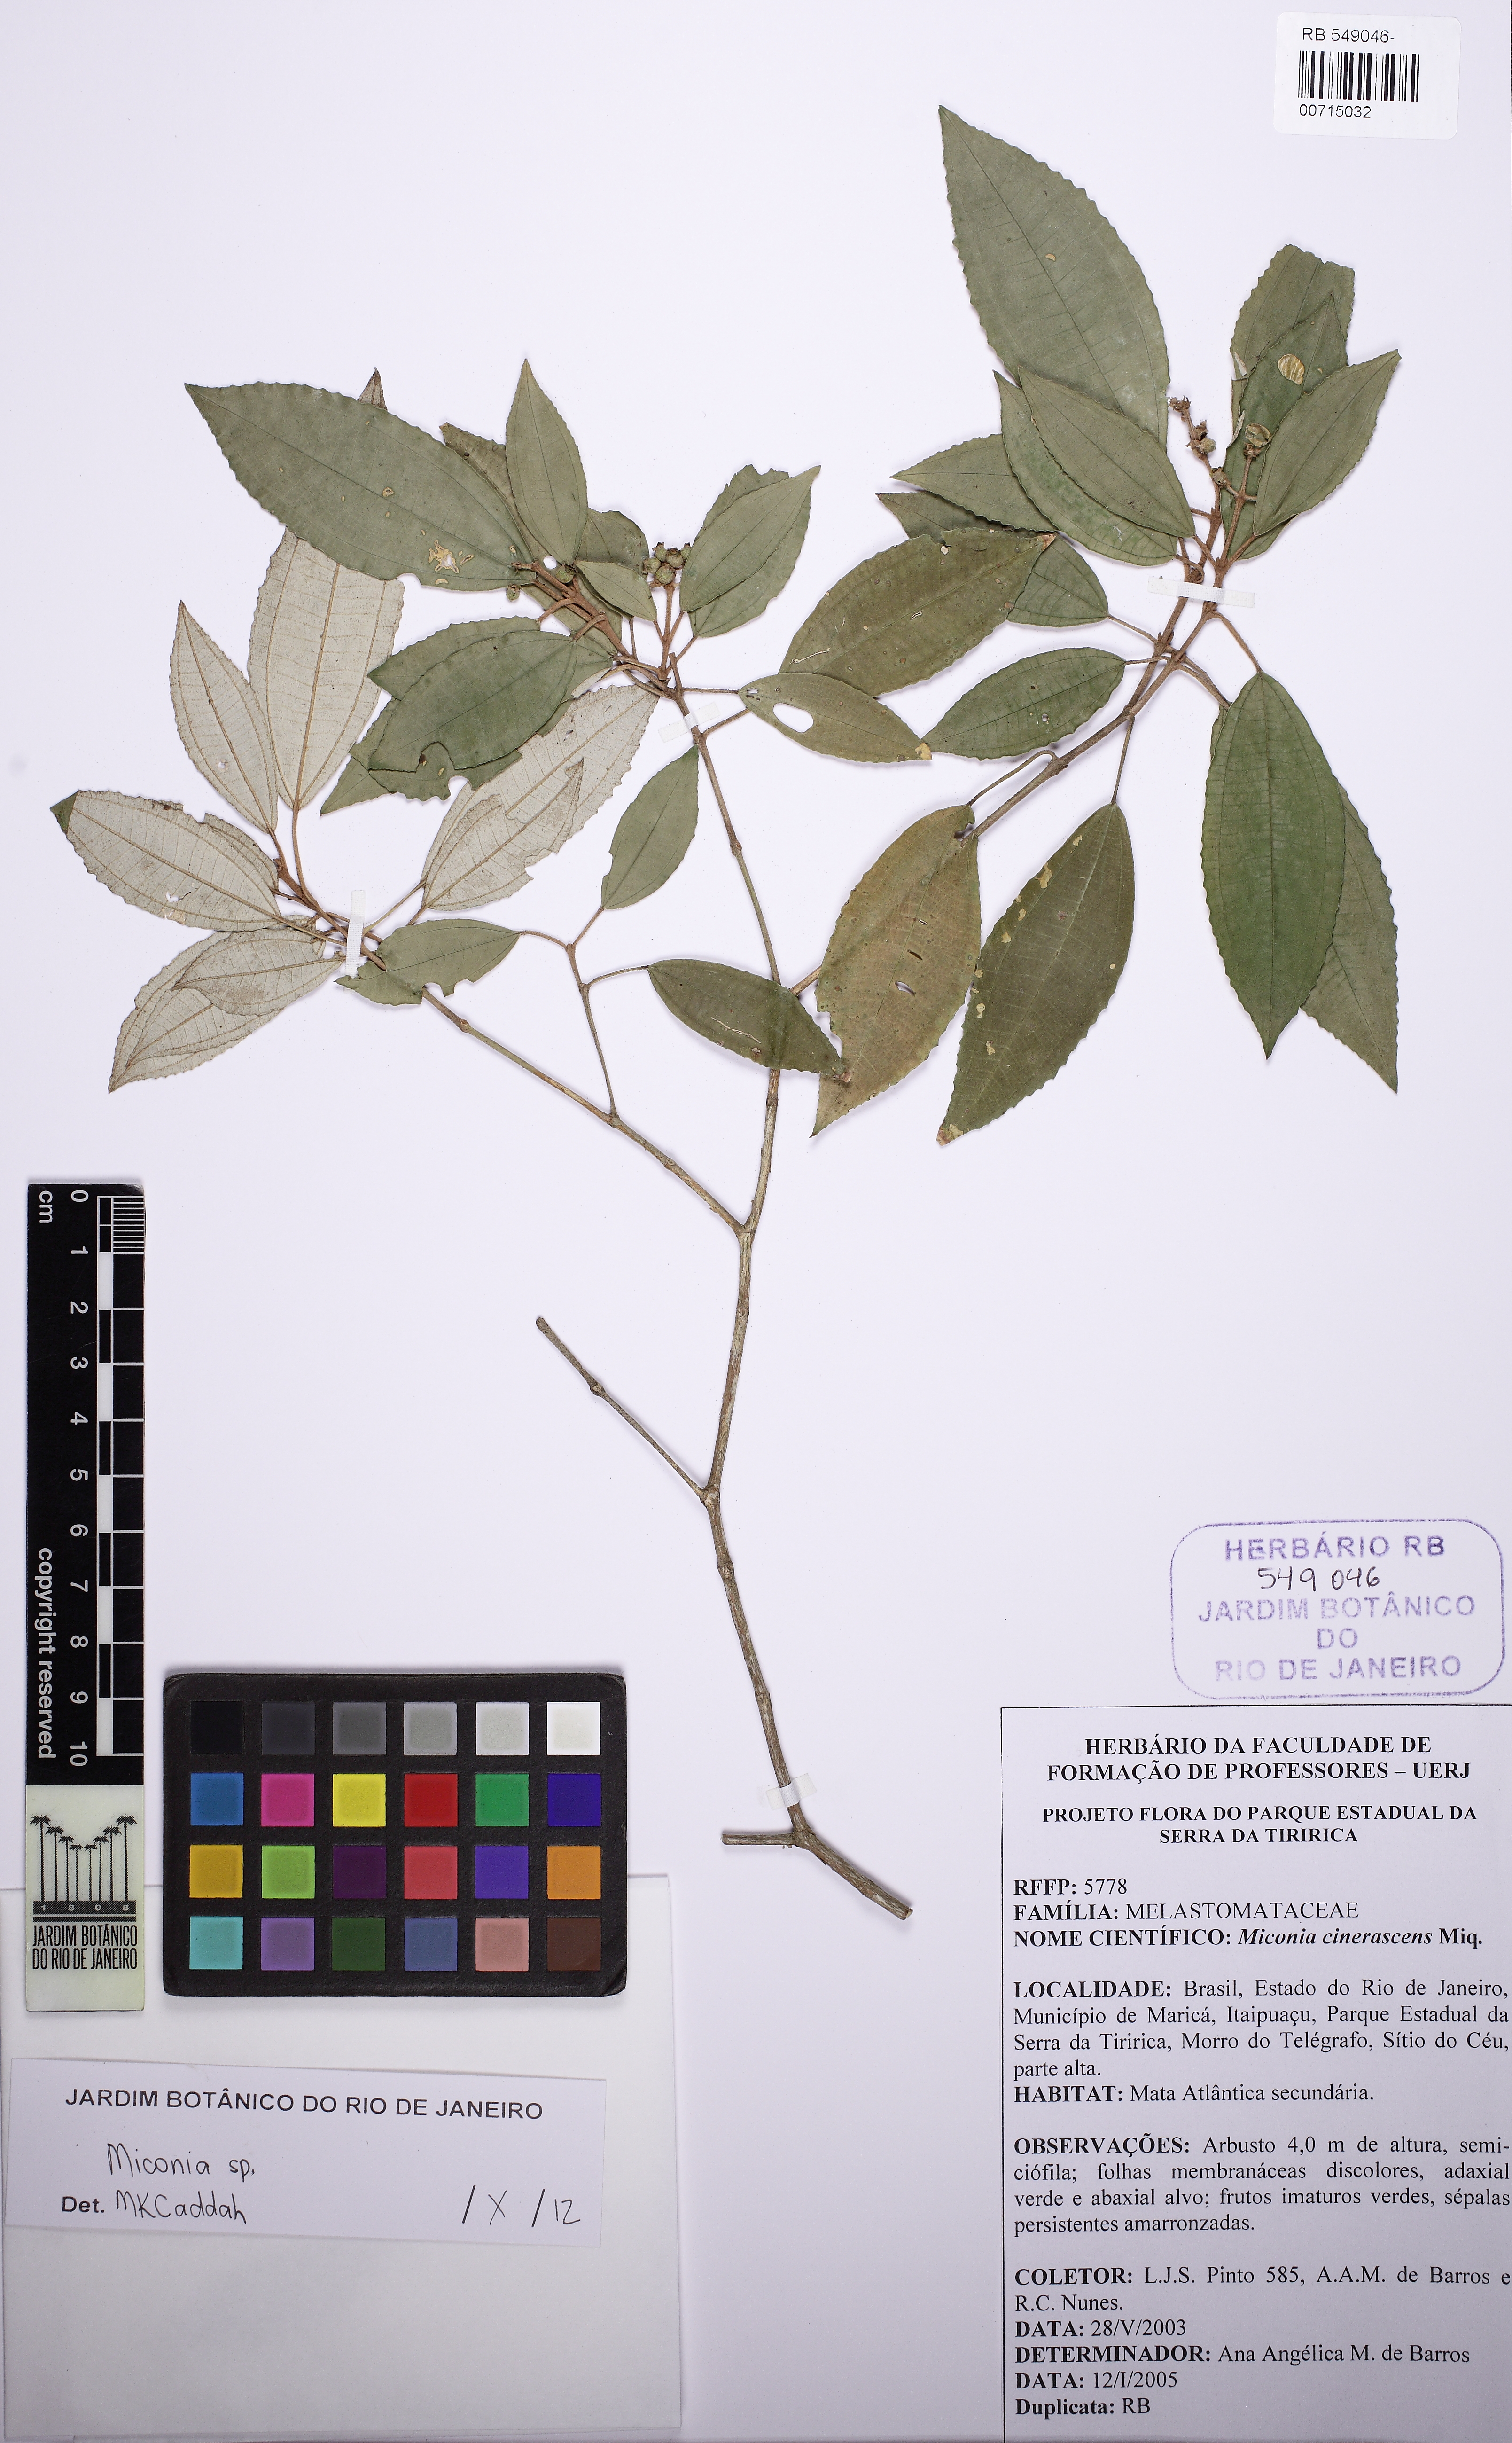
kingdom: Plantae
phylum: Tracheophyta
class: Magnoliopsida
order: Myrtales
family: Melastomataceae
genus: Miconia
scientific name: Miconia
